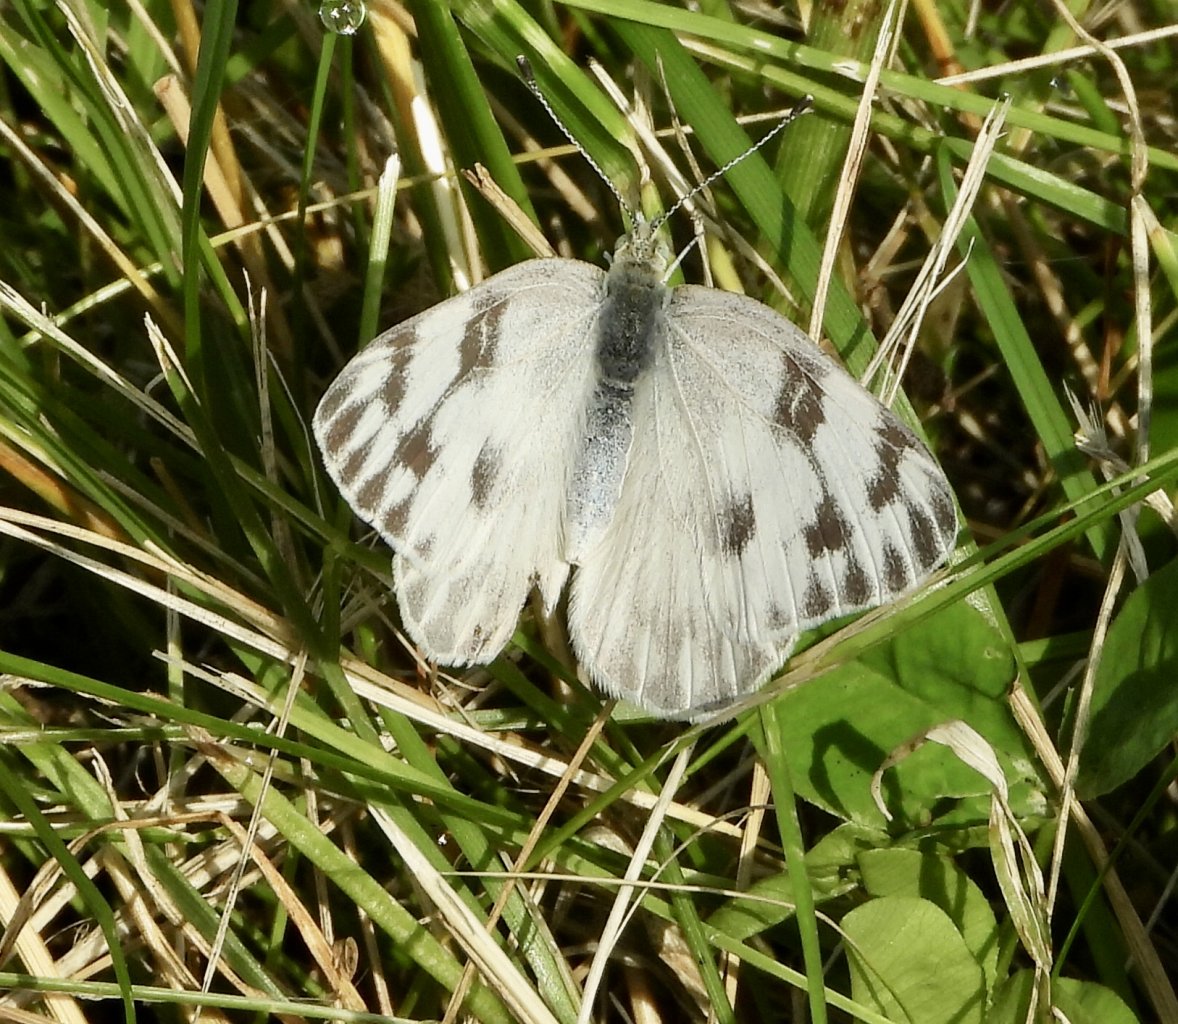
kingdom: Animalia
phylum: Arthropoda
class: Insecta
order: Lepidoptera
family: Pieridae
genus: Pontia
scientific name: Pontia protodice
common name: Checkered White
